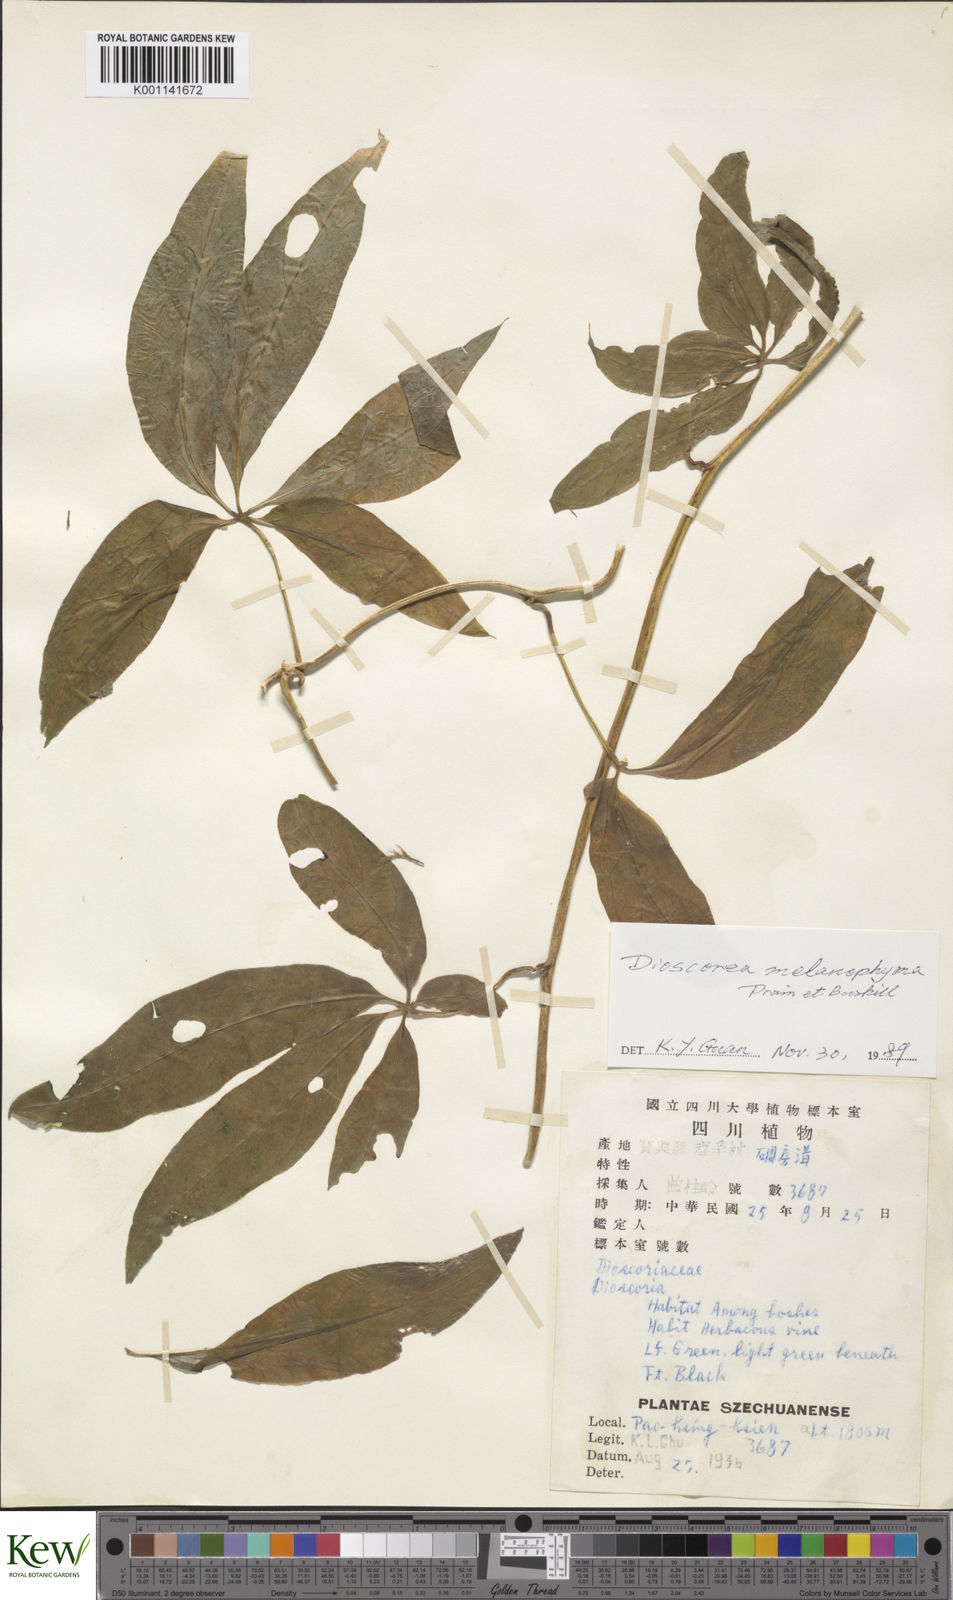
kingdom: Plantae
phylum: Tracheophyta
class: Liliopsida
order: Dioscoreales
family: Dioscoreaceae
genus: Dioscorea
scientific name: Dioscorea melanophyma
